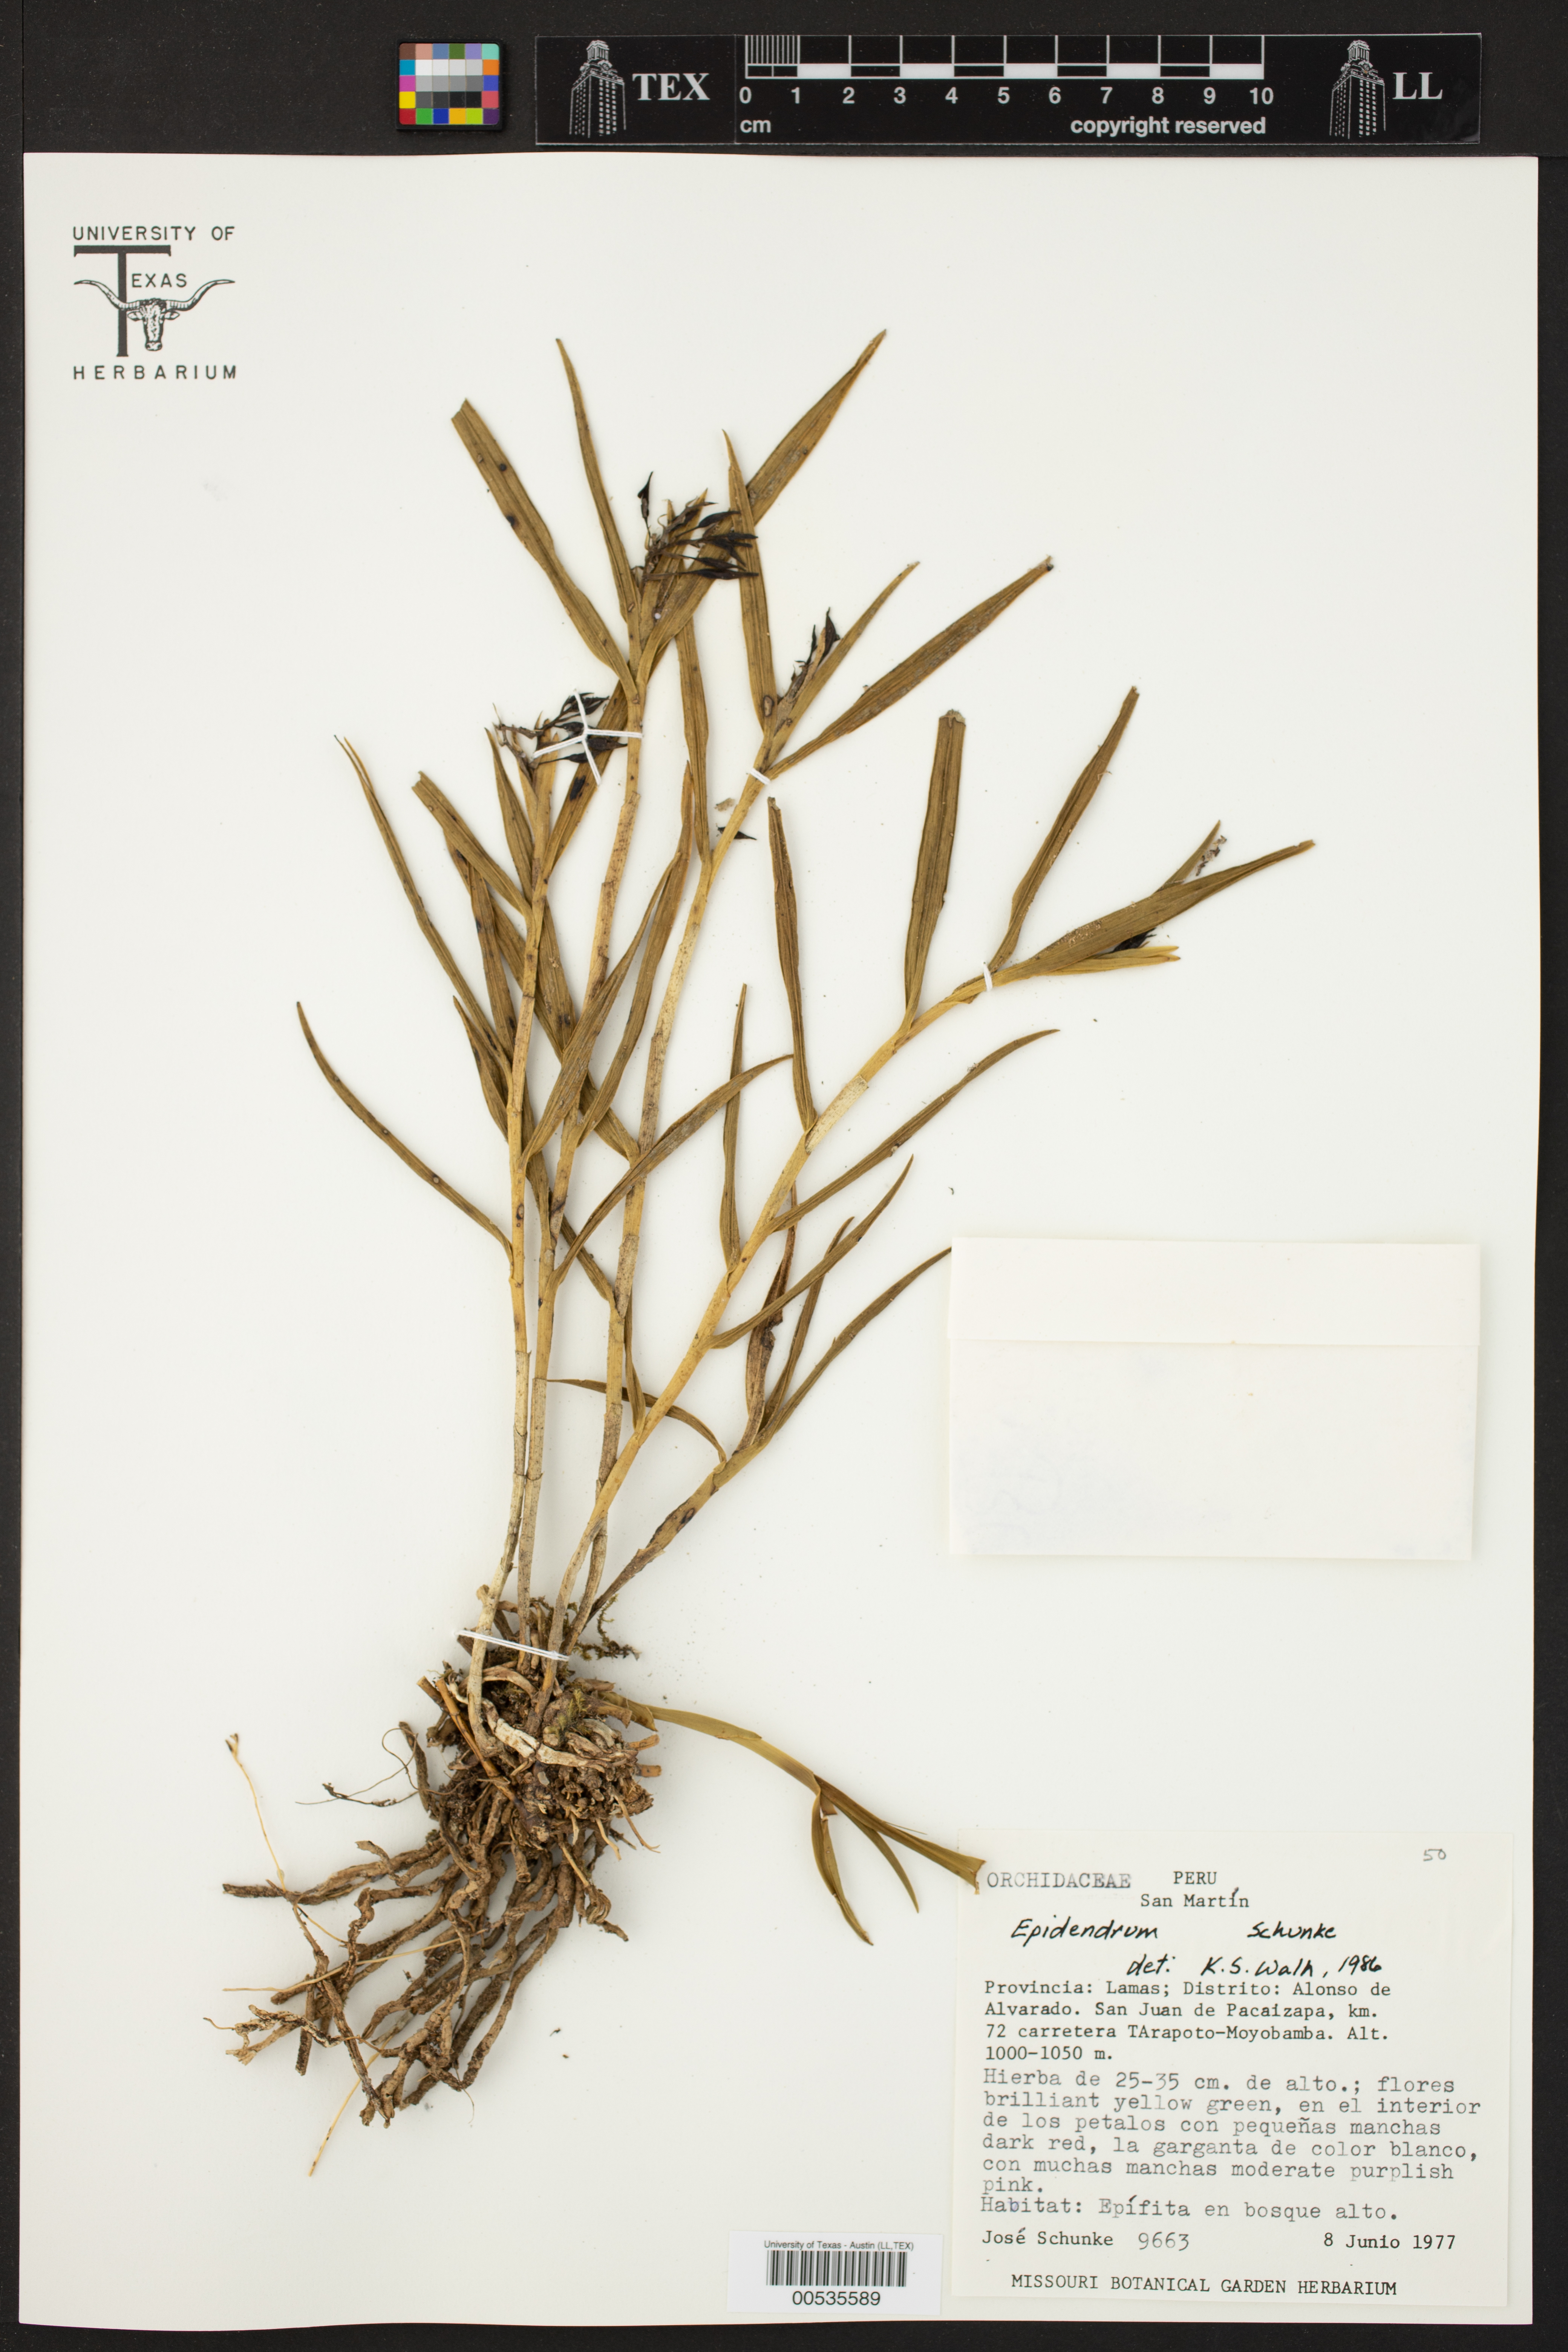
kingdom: Plantae
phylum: Tracheophyta
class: Liliopsida
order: Asparagales
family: Orchidaceae
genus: Epidendrum
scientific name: Epidendrum
